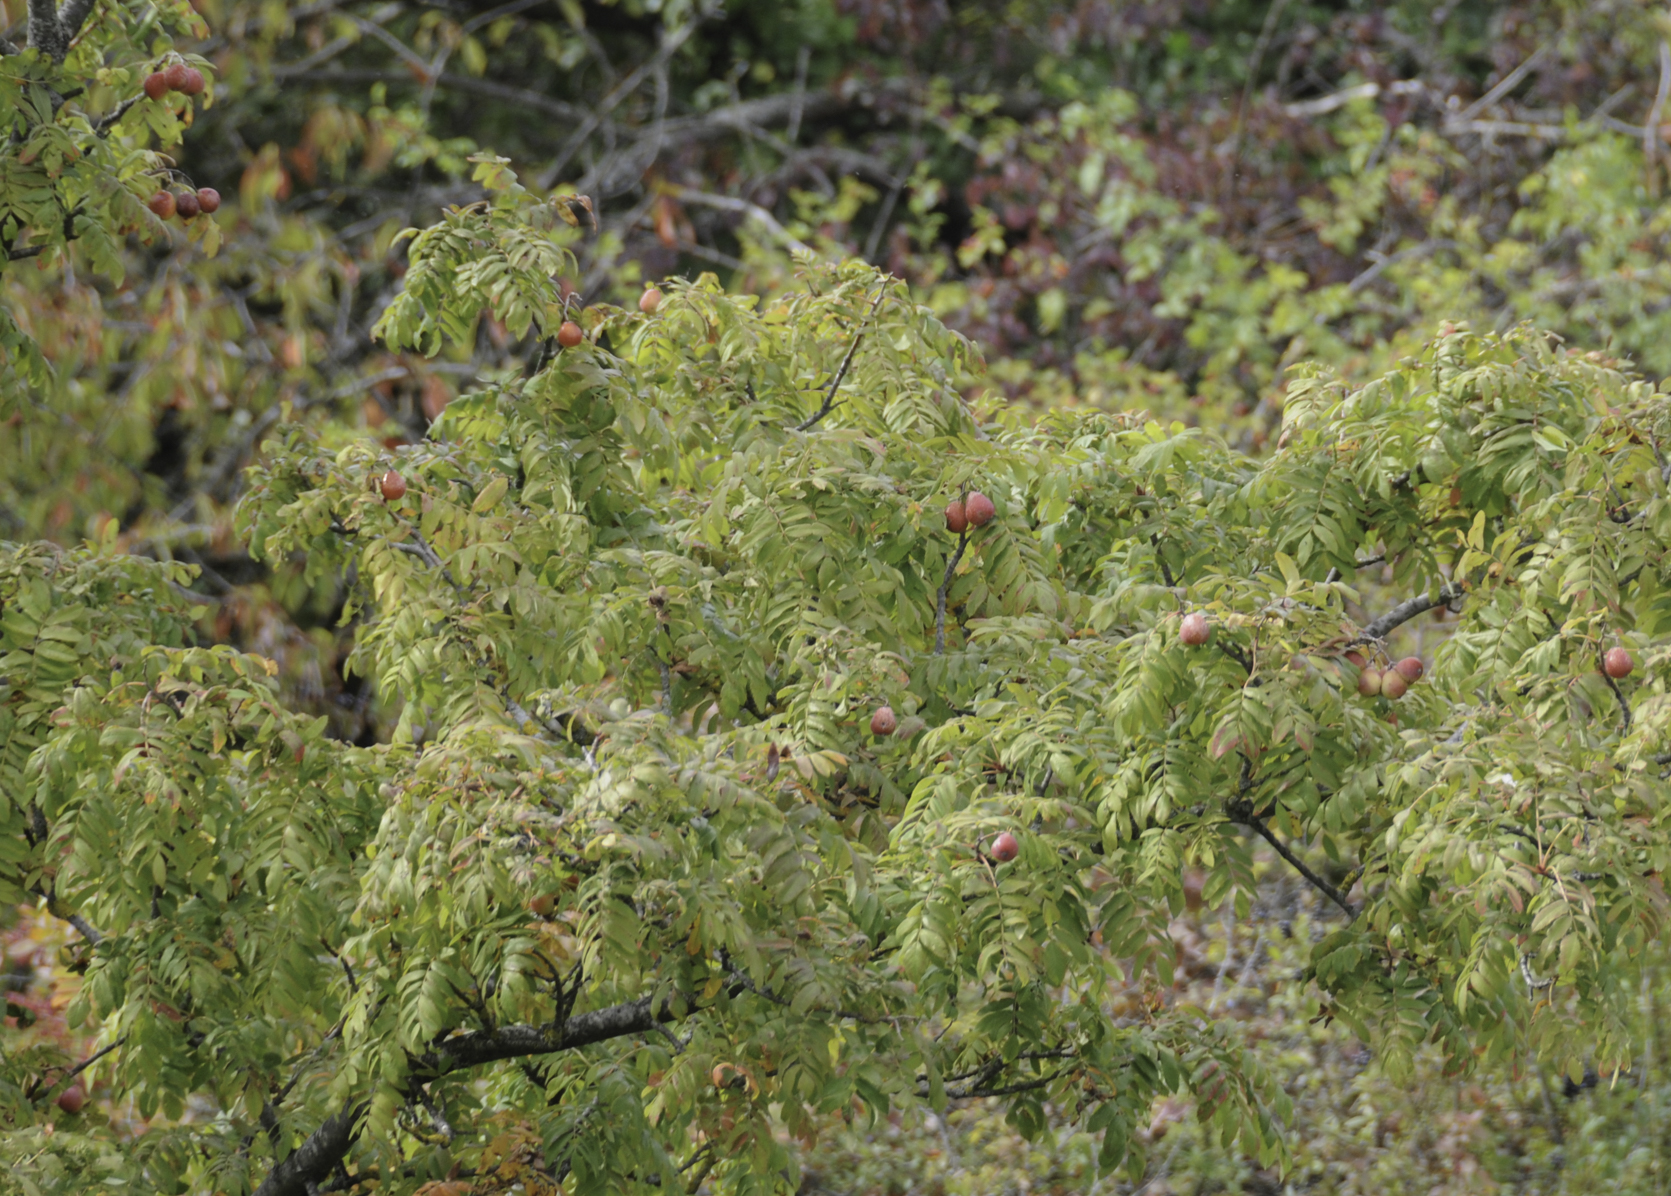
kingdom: Plantae
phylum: Tracheophyta
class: Magnoliopsida
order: Rosales
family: Rosaceae
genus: Cormus
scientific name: Cormus domestica
